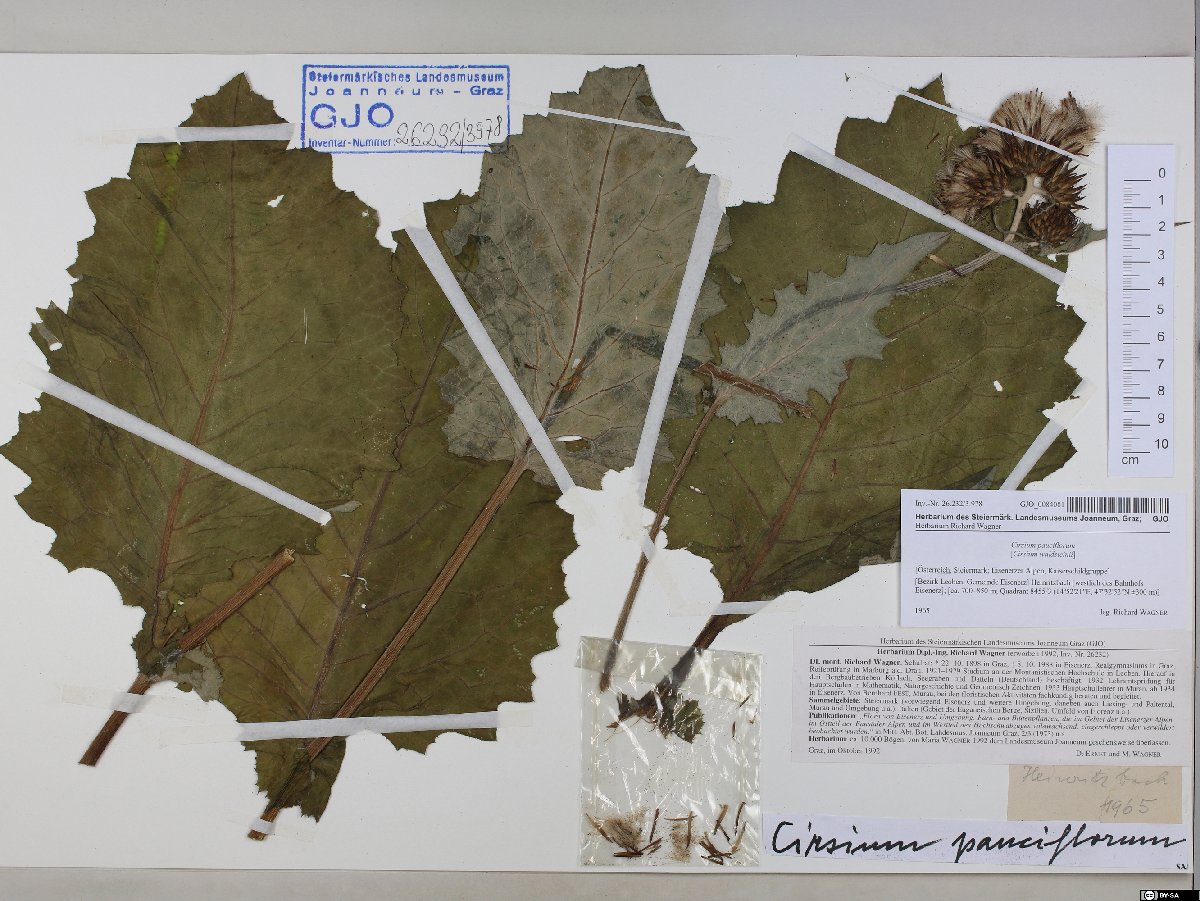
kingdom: Plantae
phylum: Tracheophyta
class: Magnoliopsida
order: Asterales
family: Asteraceae
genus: Cirsium
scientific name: Cirsium greimleri
